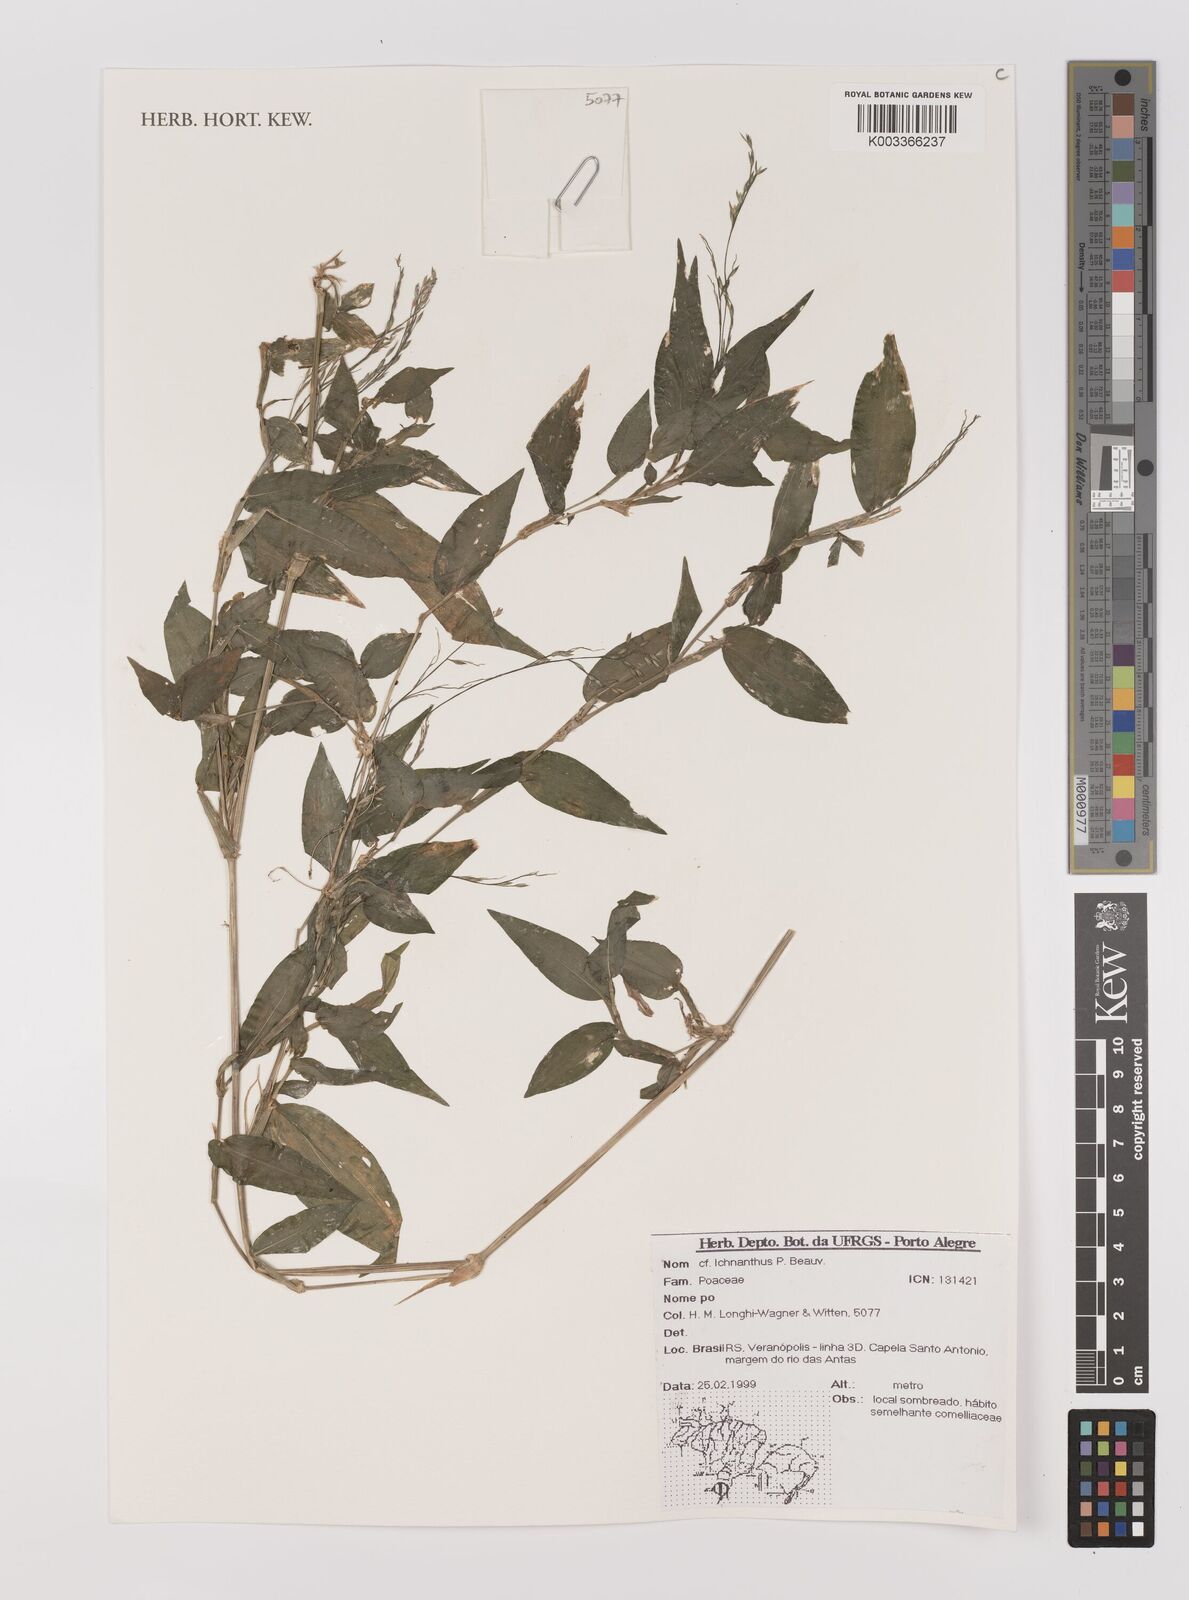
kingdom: Plantae
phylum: Tracheophyta
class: Liliopsida
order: Poales
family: Poaceae
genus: Ichnanthus
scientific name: Ichnanthus
